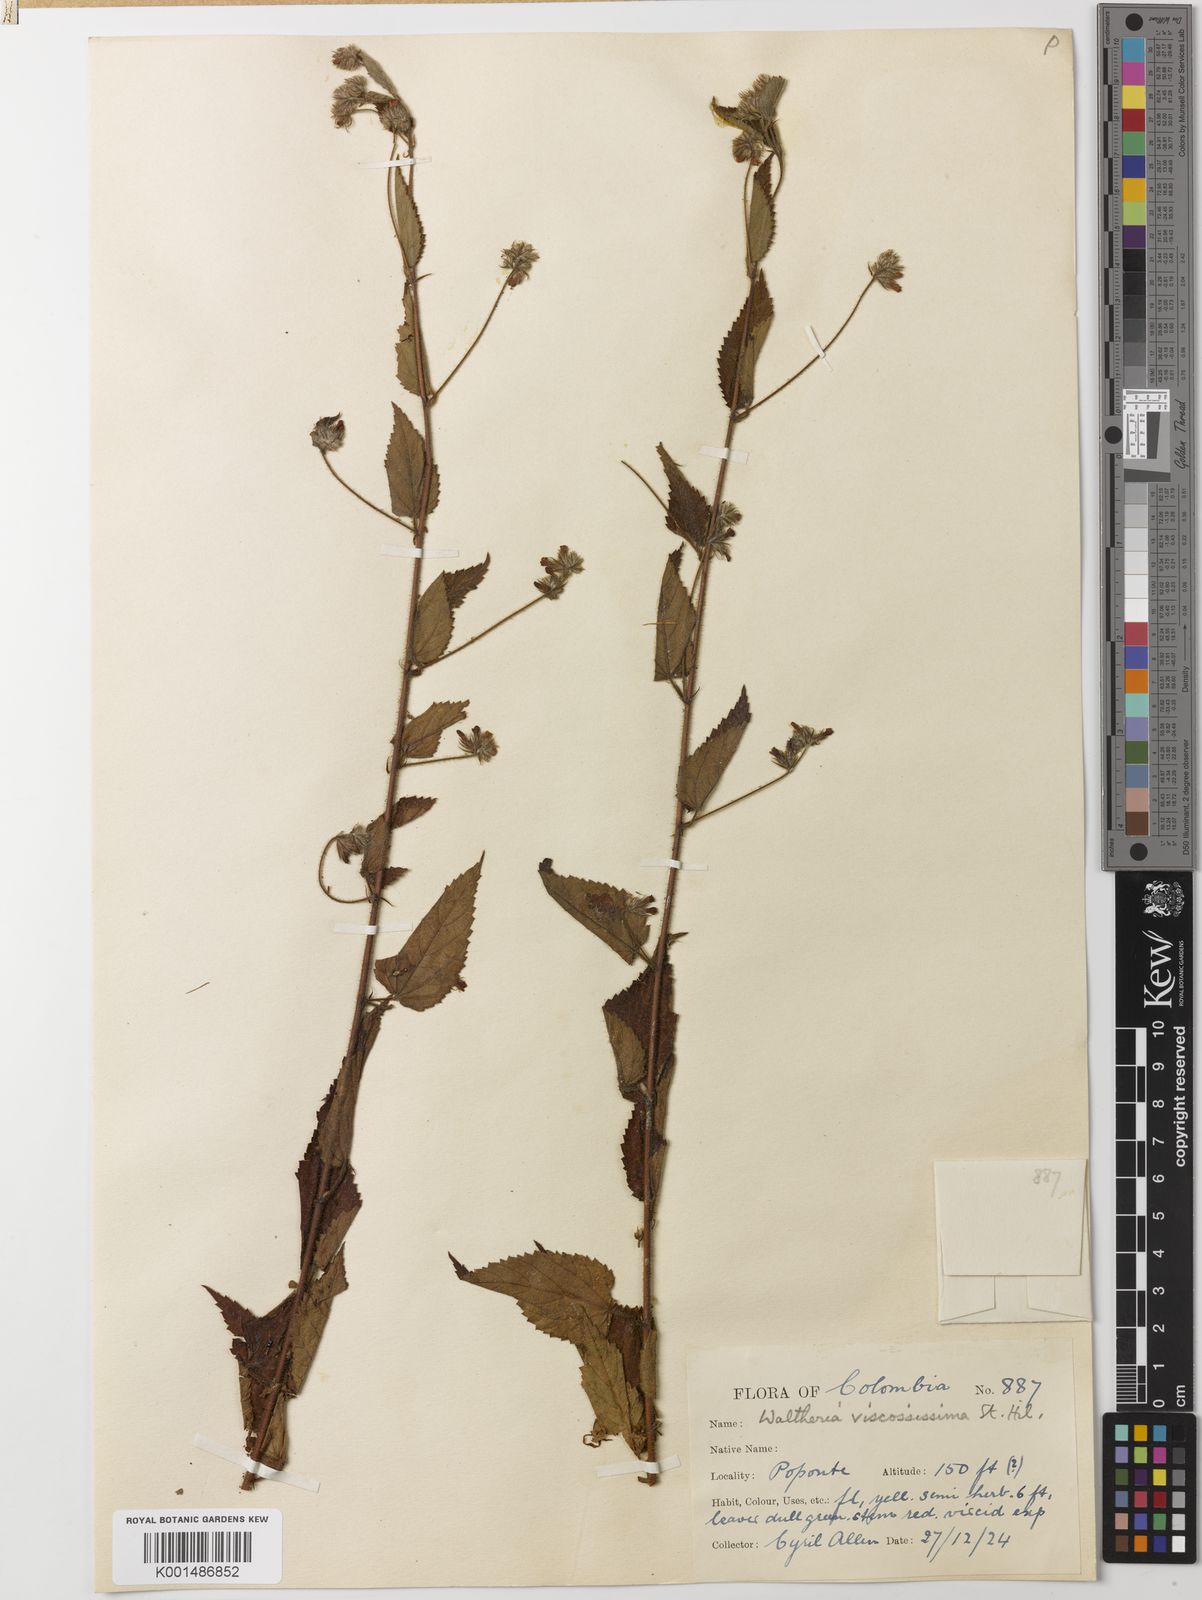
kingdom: Plantae
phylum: Tracheophyta
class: Magnoliopsida
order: Malvales
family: Malvaceae
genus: Waltheria
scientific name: Waltheria viscosissima
